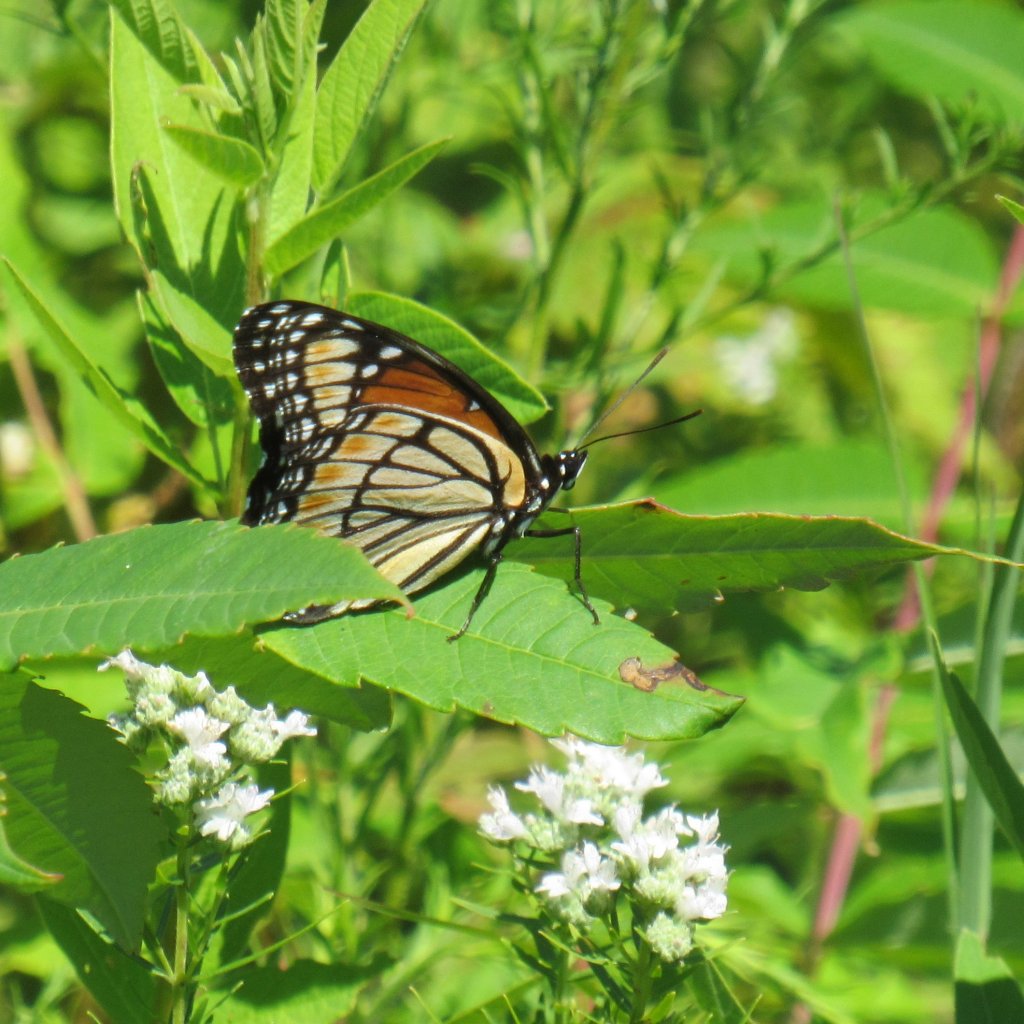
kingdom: Animalia
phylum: Arthropoda
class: Insecta
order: Lepidoptera
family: Nymphalidae
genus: Danaus
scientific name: Danaus plexippus
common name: Monarch
